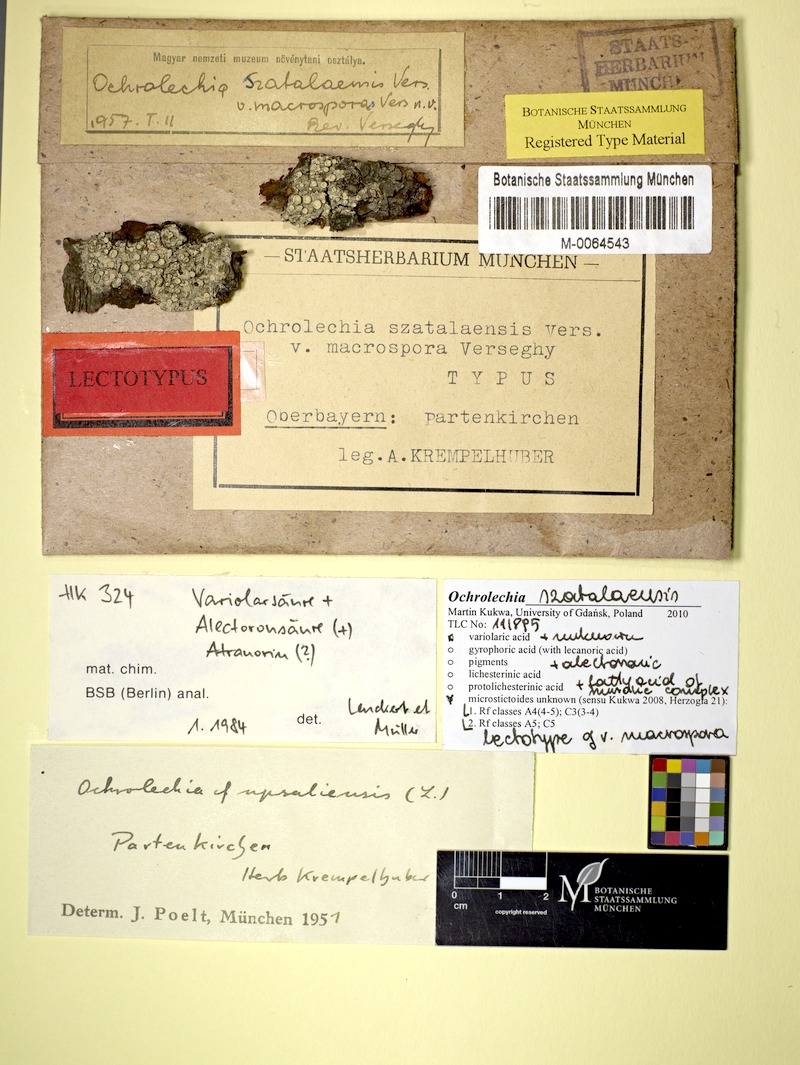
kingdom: Fungi
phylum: Ascomycota
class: Lecanoromycetes
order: Pertusariales
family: Ochrolechiaceae
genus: Ochrolechia
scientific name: Ochrolechia szatalaensis
